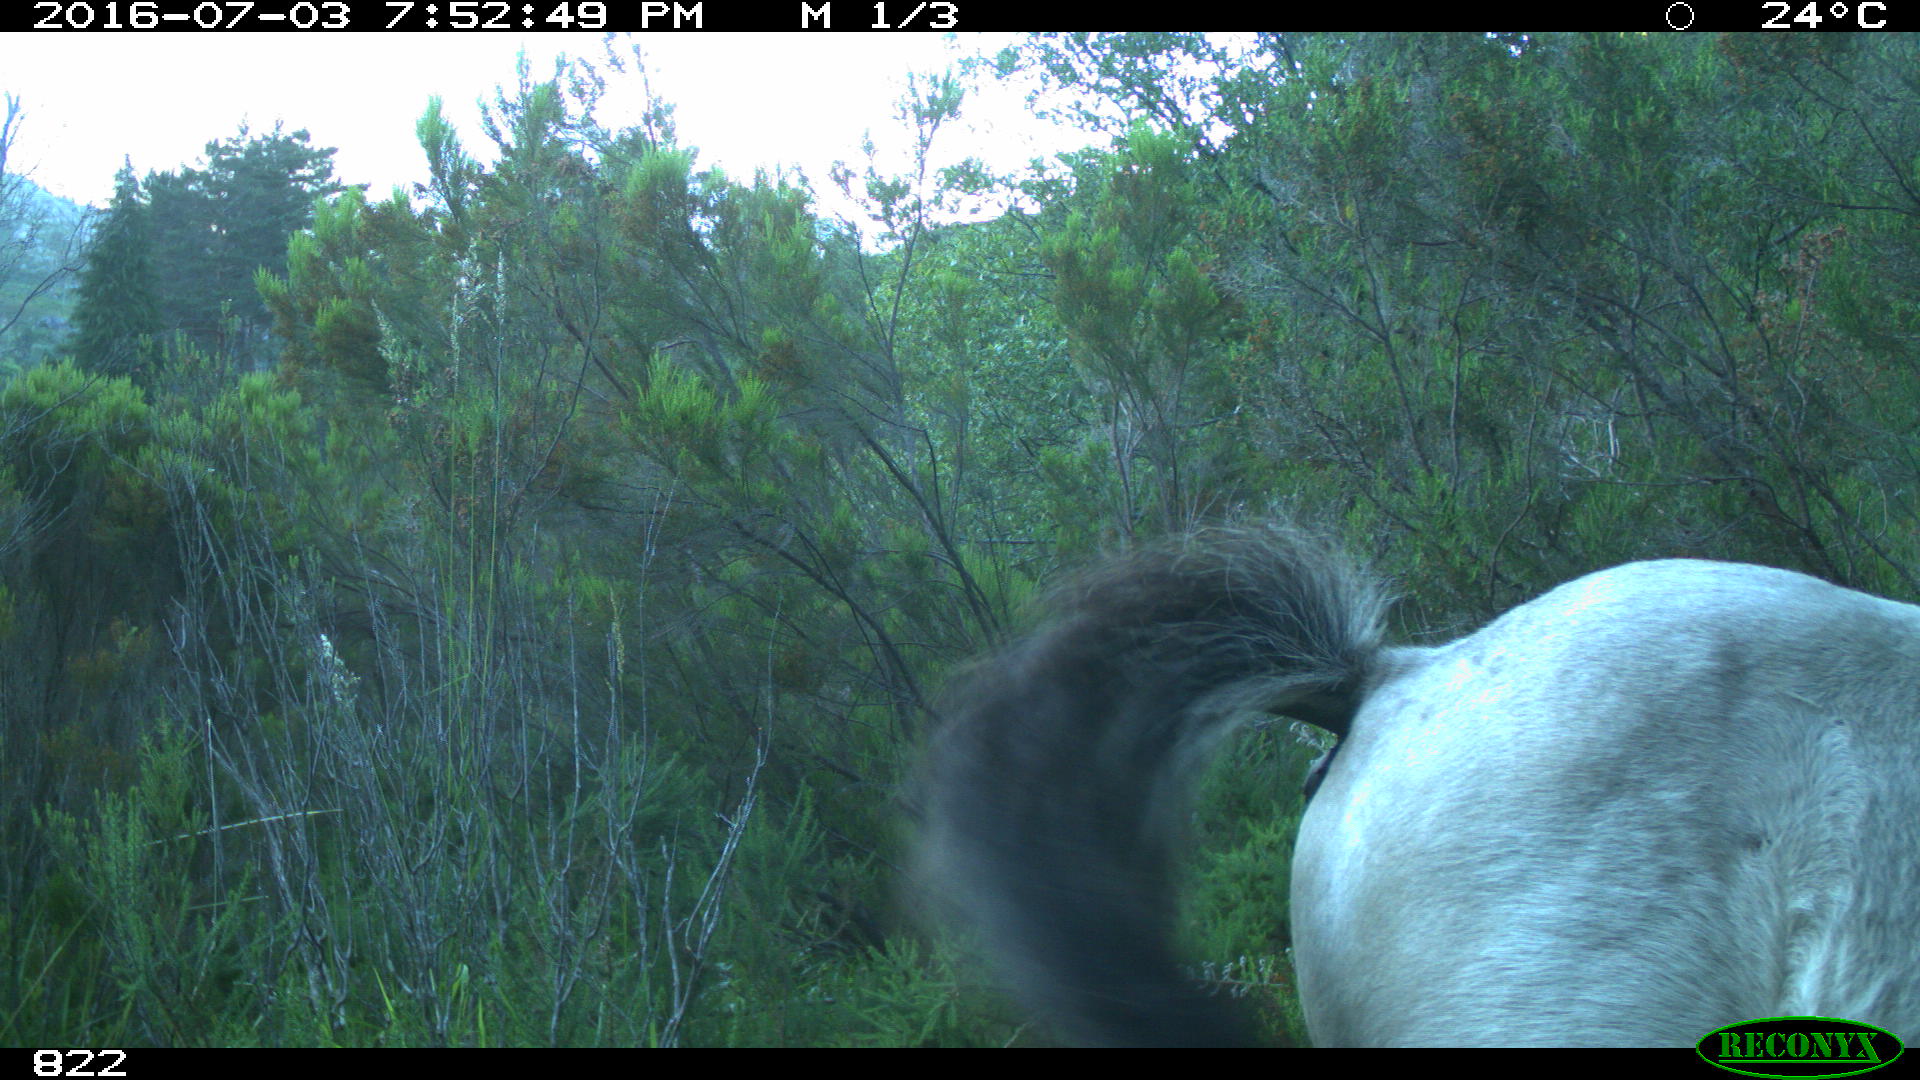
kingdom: Animalia
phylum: Chordata
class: Mammalia
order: Perissodactyla
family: Equidae
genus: Equus
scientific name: Equus caballus
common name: Horse
